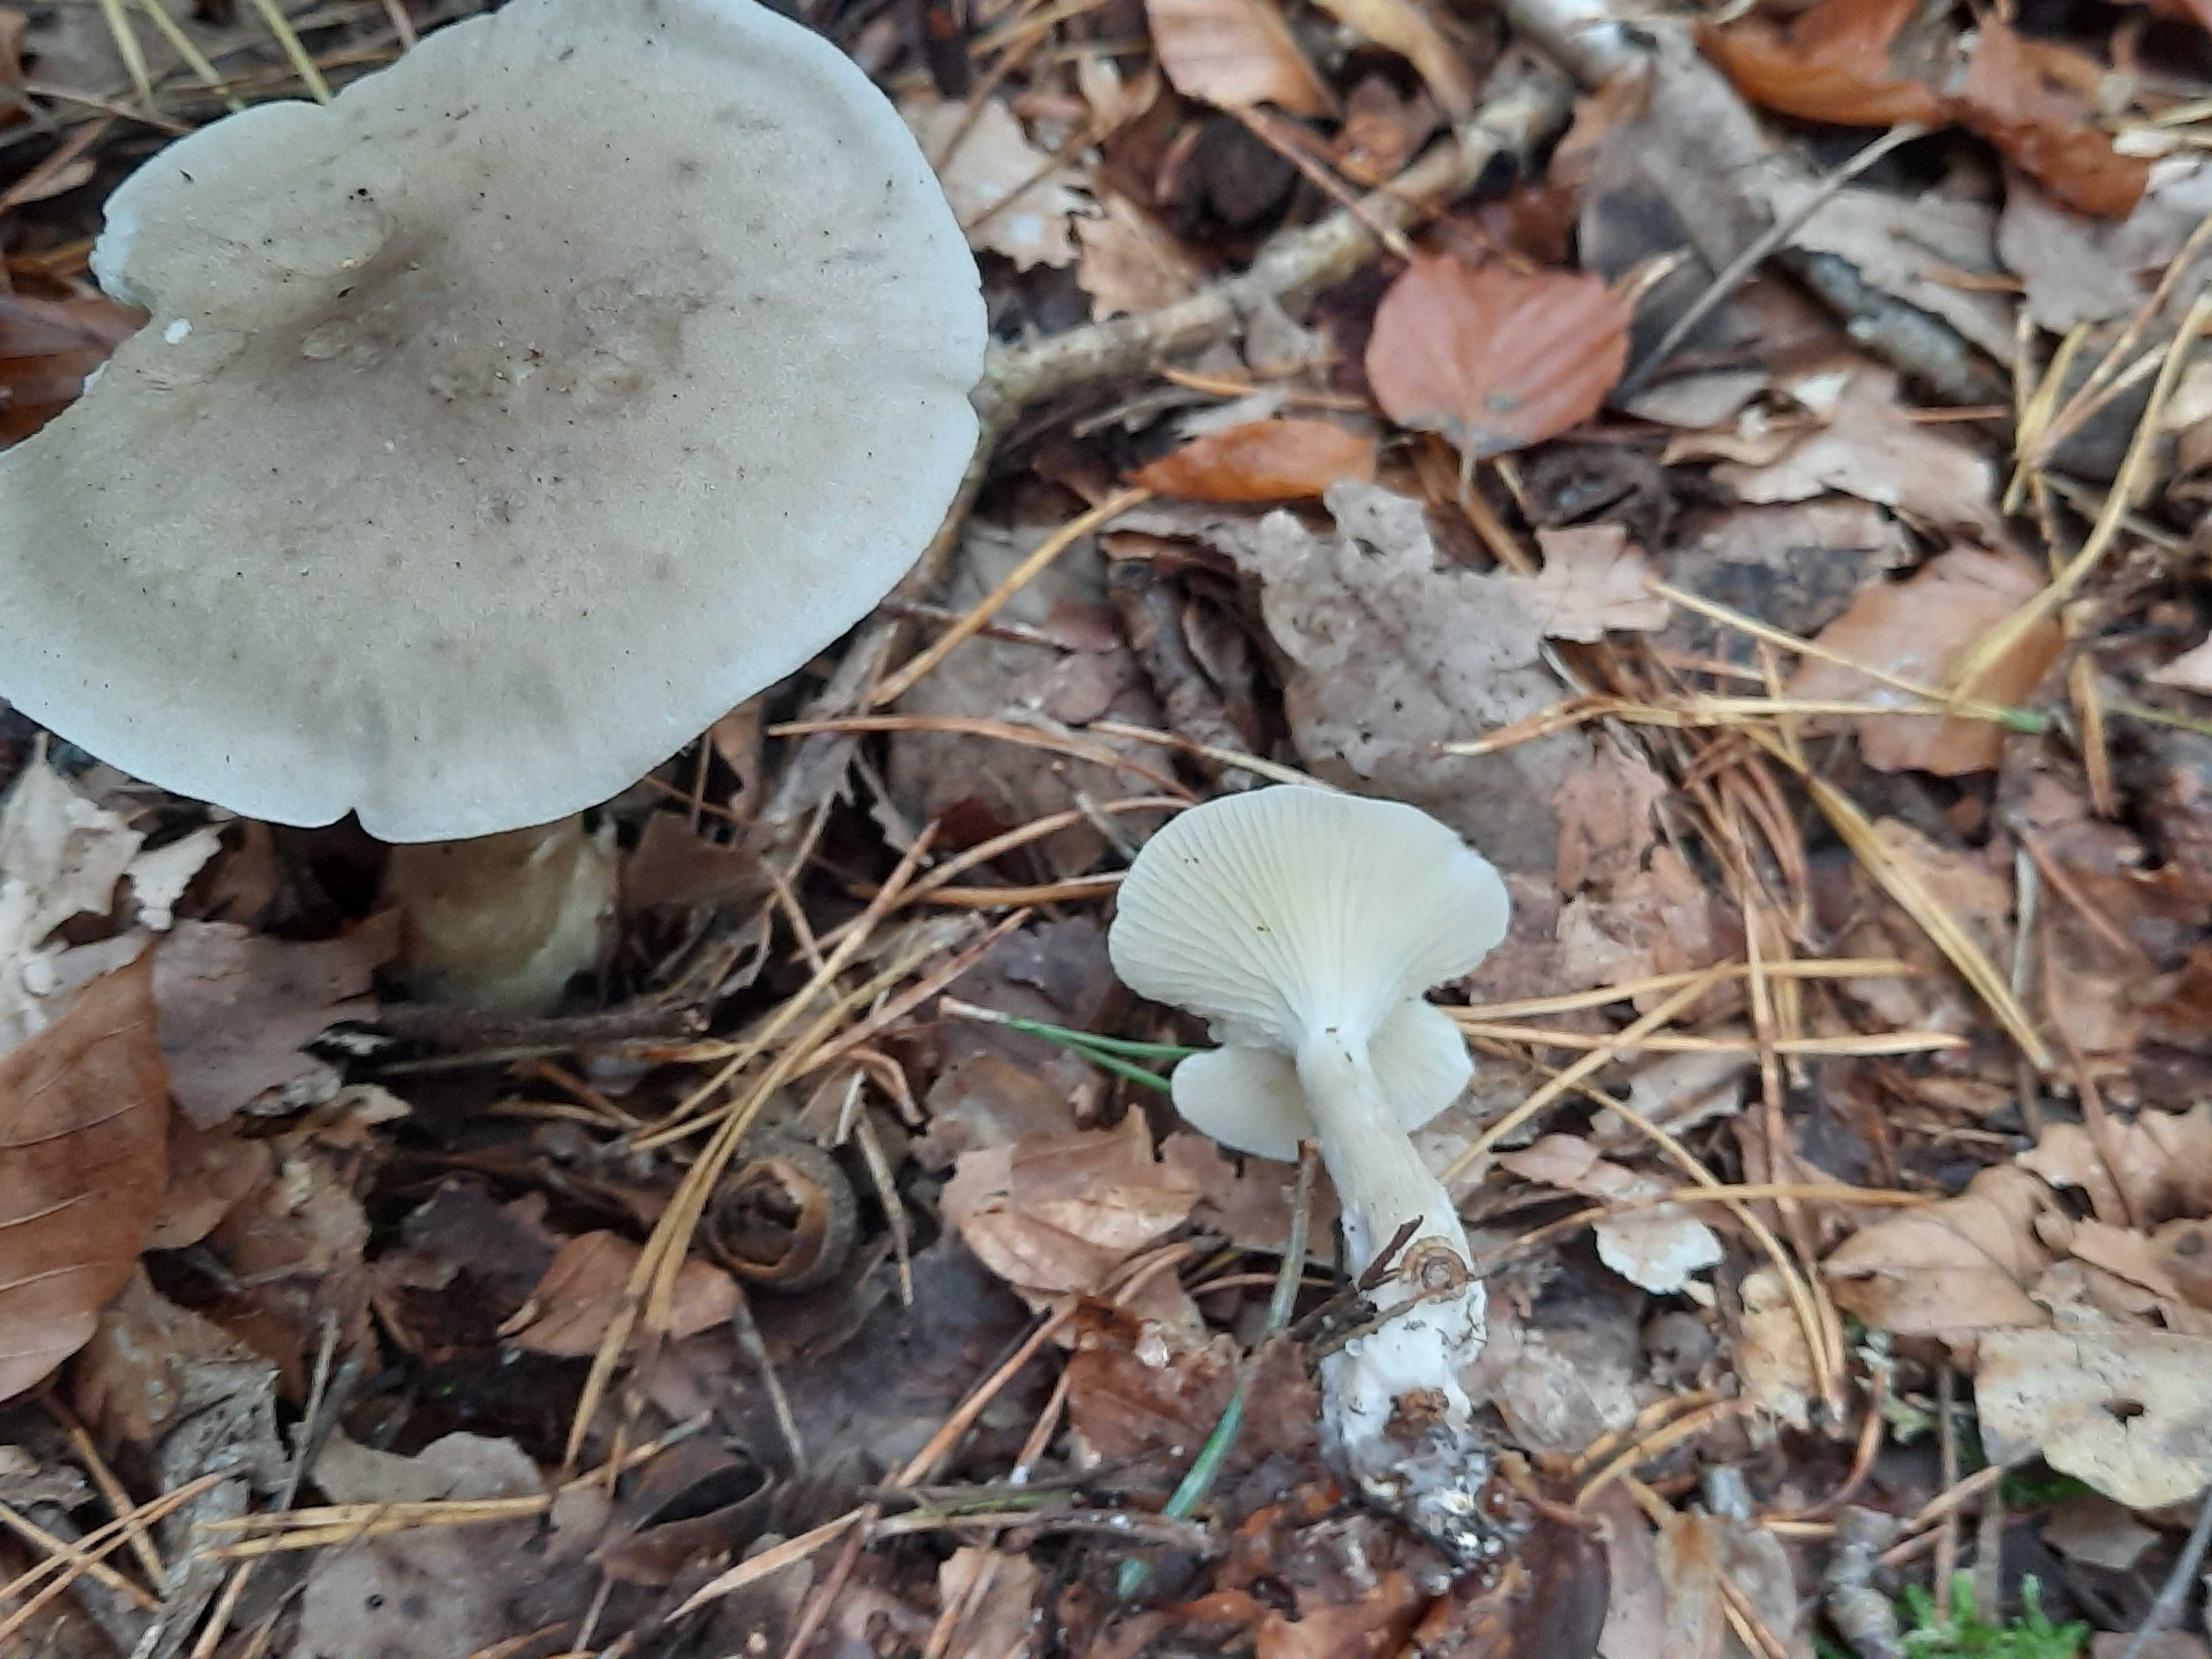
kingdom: Fungi
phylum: Basidiomycota
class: Agaricomycetes
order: Agaricales
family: Hygrophoraceae
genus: Ampulloclitocybe
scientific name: Ampulloclitocybe clavipes
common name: køllefod
